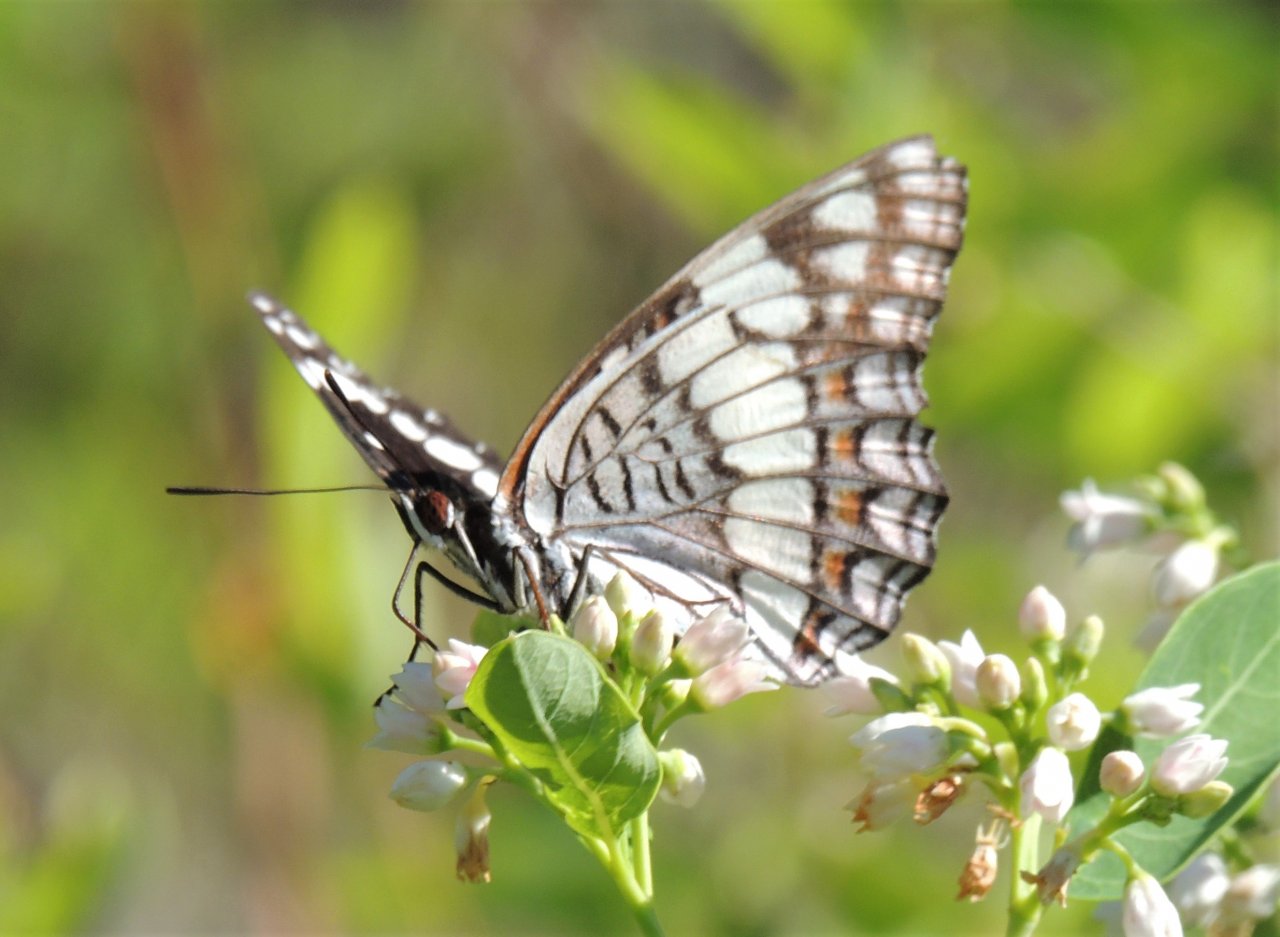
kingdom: Animalia
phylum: Arthropoda
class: Insecta
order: Lepidoptera
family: Nymphalidae
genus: Limenitis
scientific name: Limenitis weidemeyerii
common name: Weidemeyer's Admiral
